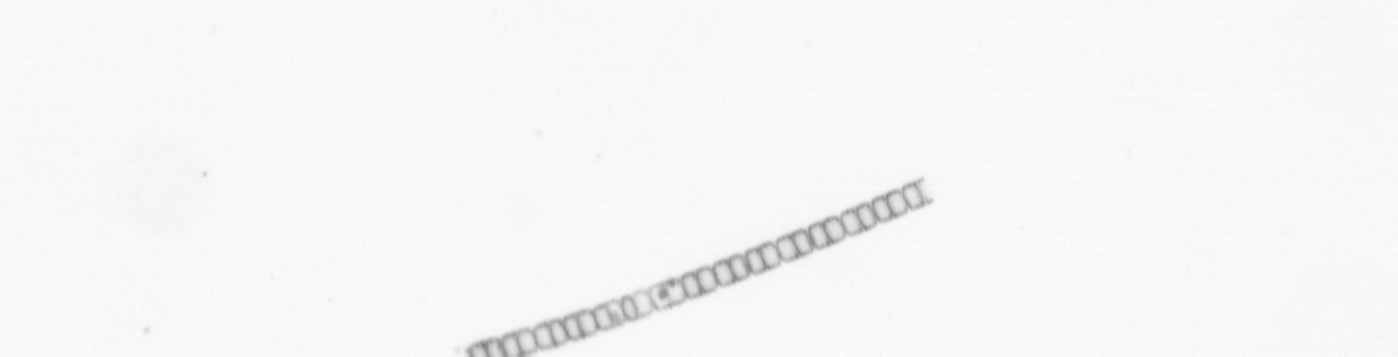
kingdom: Chromista
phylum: Ochrophyta
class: Bacillariophyceae
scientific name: Bacillariophyceae
